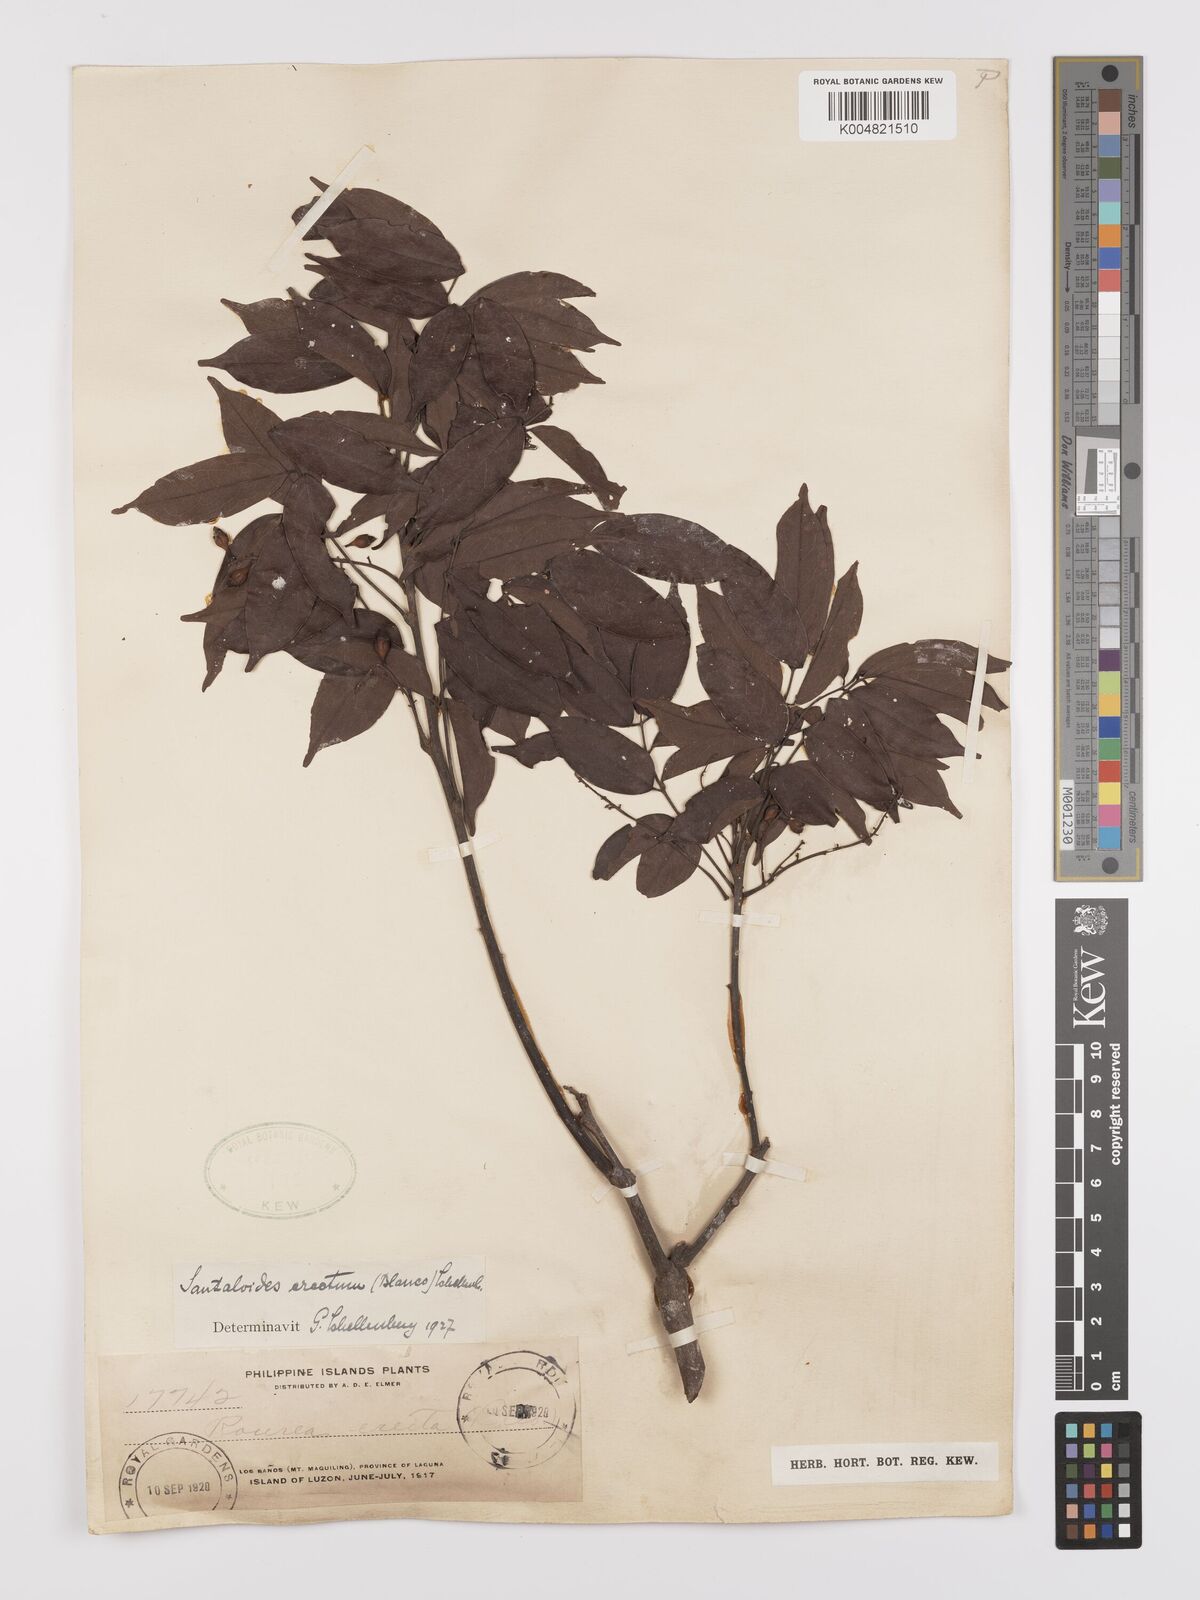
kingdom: Plantae
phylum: Tracheophyta
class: Magnoliopsida
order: Oxalidales
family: Connaraceae
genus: Rourea
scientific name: Rourea minor
